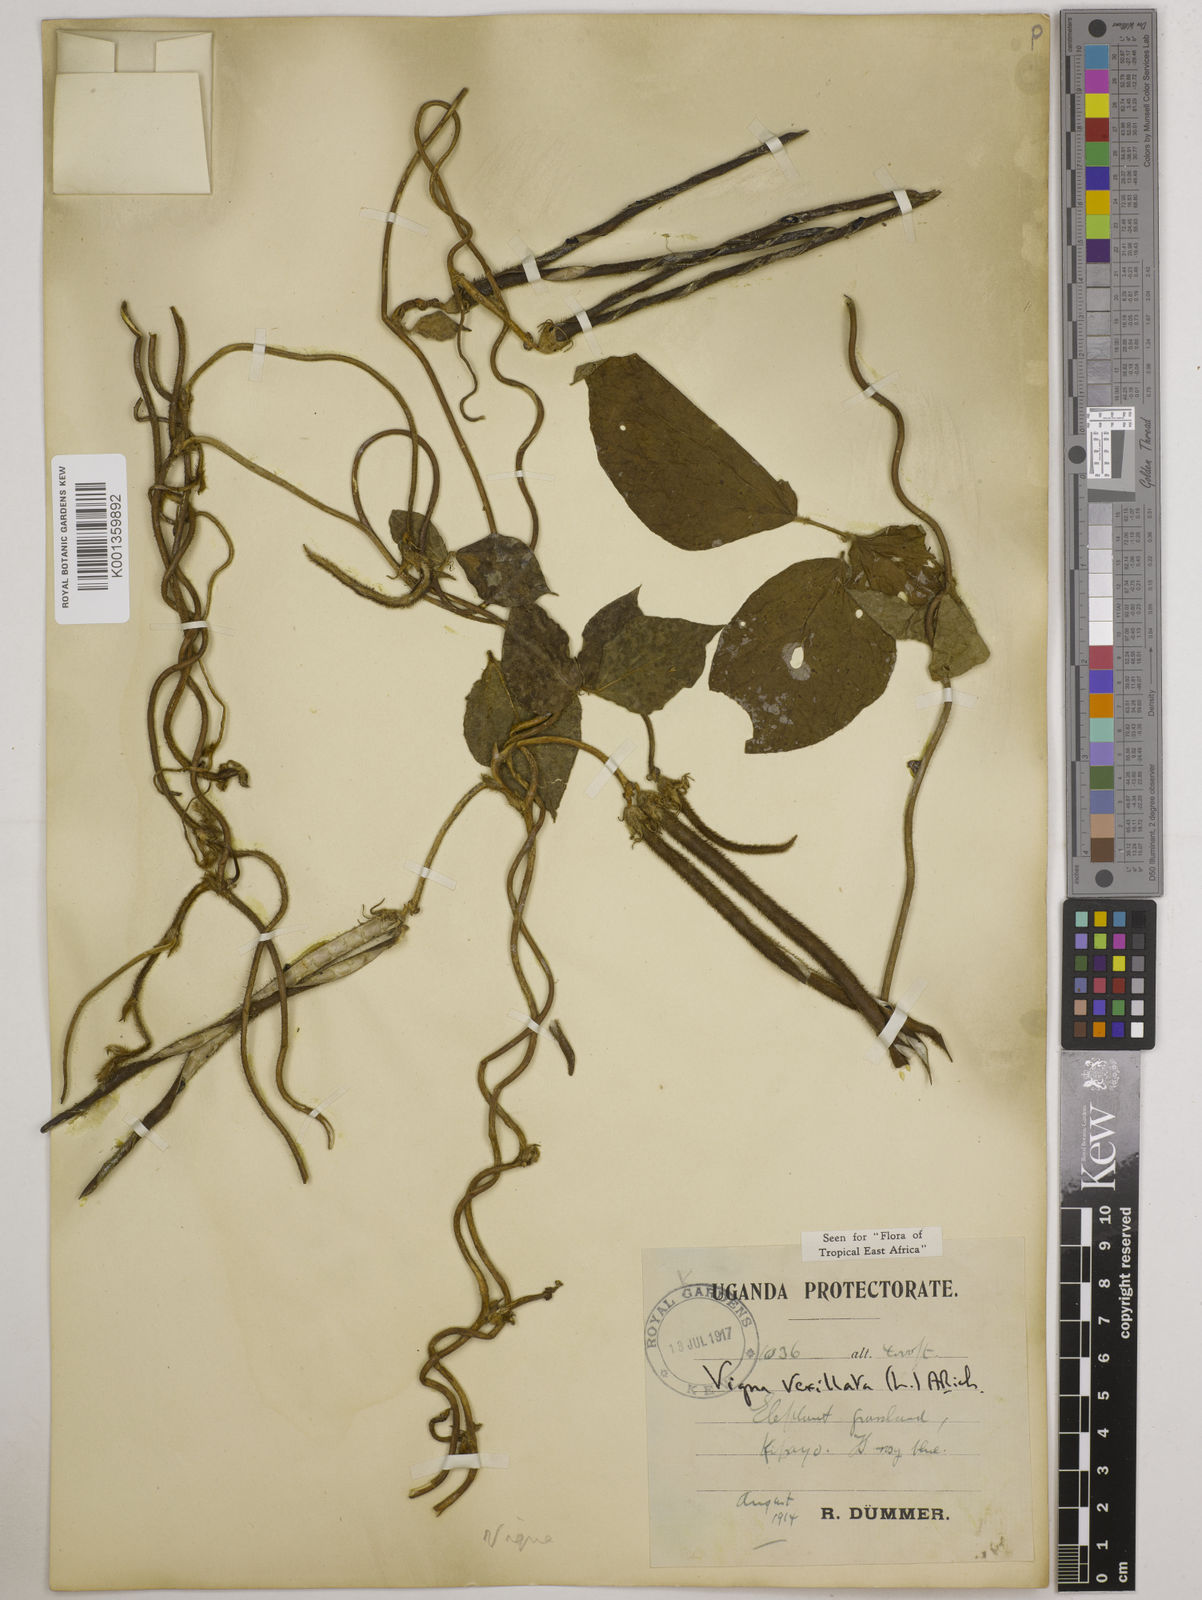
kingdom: Plantae
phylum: Tracheophyta
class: Magnoliopsida
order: Fabales
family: Fabaceae
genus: Vigna
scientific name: Vigna vexillata
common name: Zombi pea
